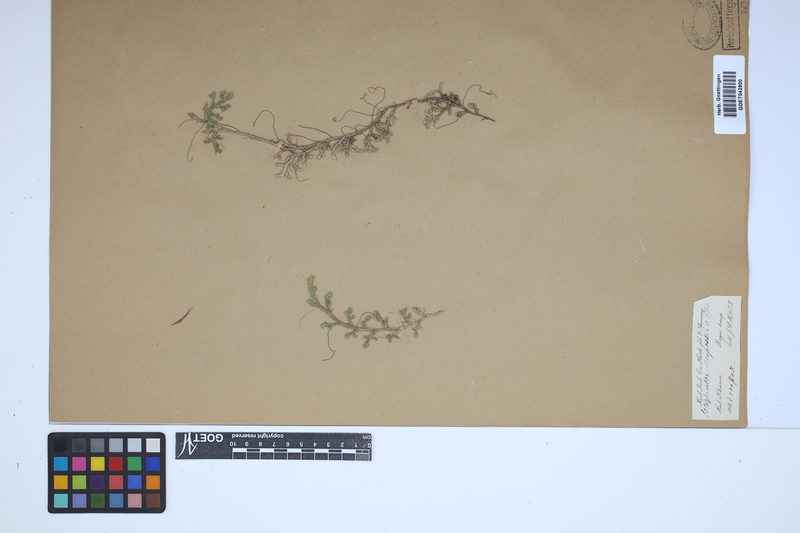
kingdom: Plantae
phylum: Tracheophyta
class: Lycopodiopsida
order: Selaginellales
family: Selaginellaceae
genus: Selaginella
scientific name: Selaginella rupestris
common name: Dwarf spikemoss
